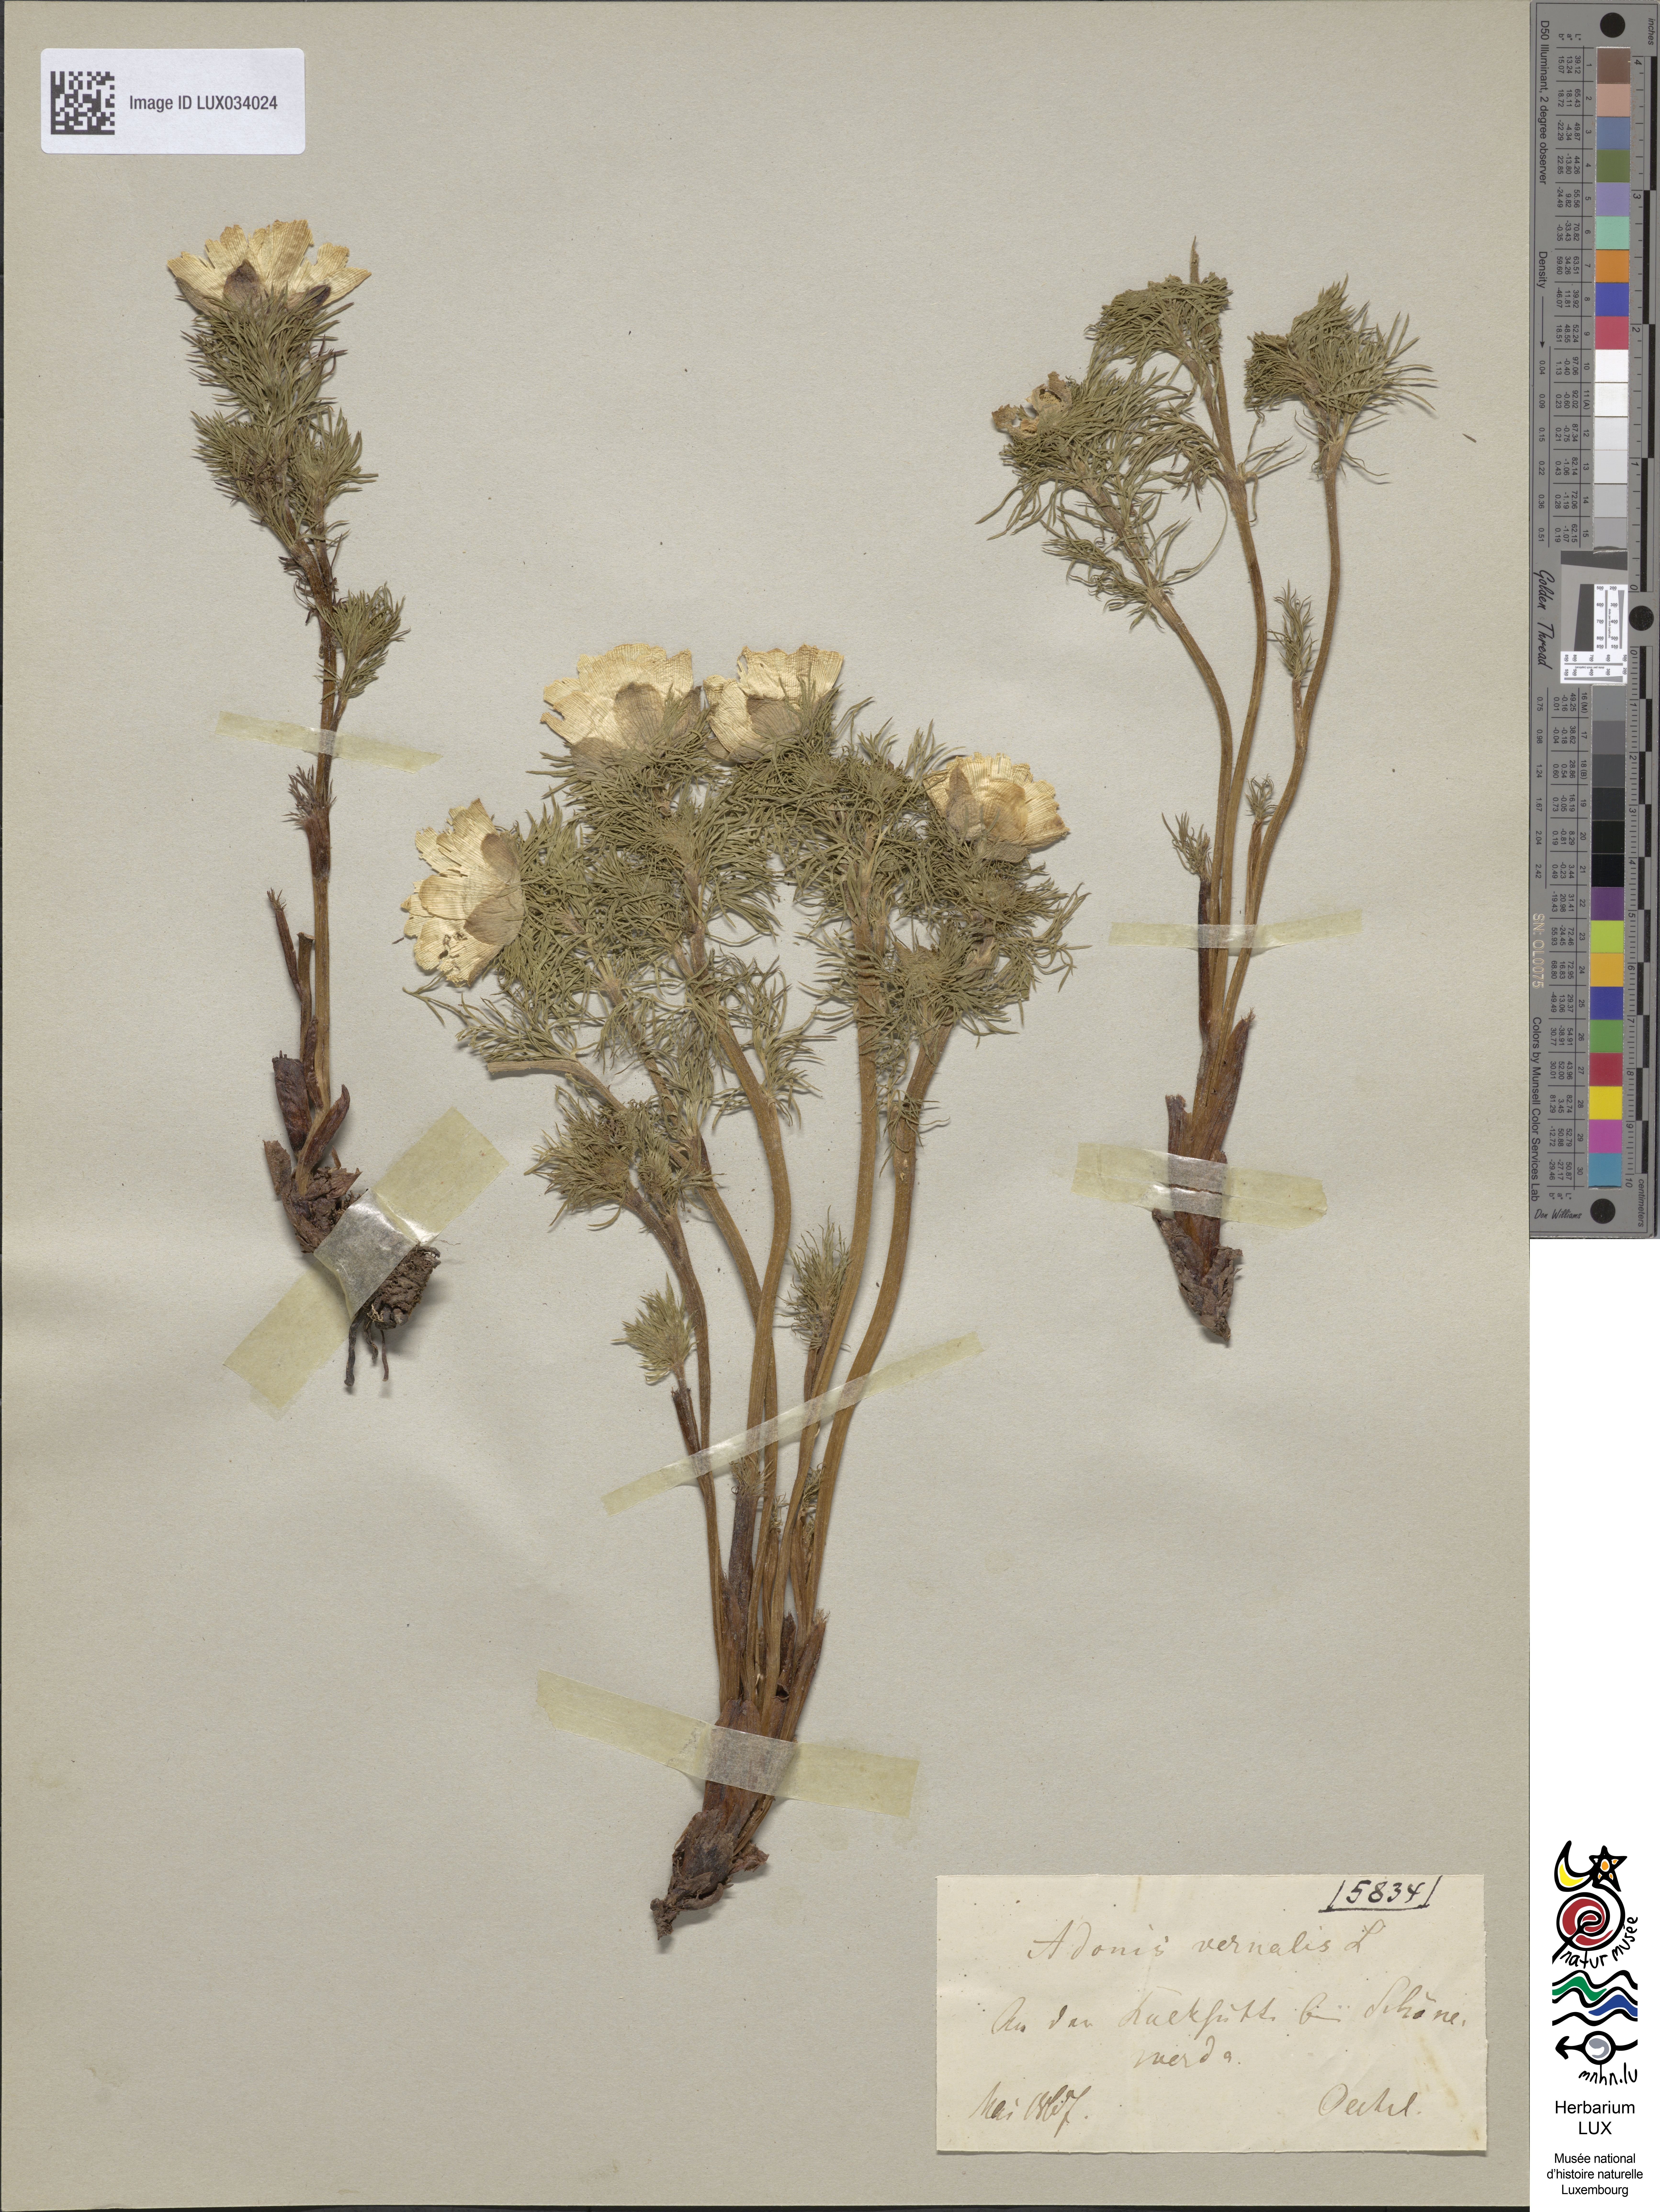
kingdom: Plantae
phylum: Tracheophyta
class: Magnoliopsida
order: Ranunculales
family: Ranunculaceae
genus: Adonis
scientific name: Adonis vernalis
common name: Yellow pheasants-eye
